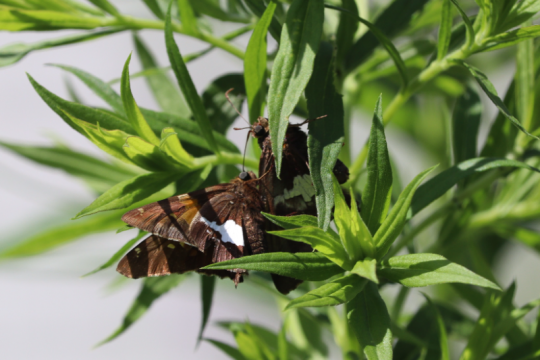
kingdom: Animalia
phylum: Arthropoda
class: Insecta
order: Lepidoptera
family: Hesperiidae
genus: Epargyreus
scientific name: Epargyreus clarus
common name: Silver-spotted Skipper
